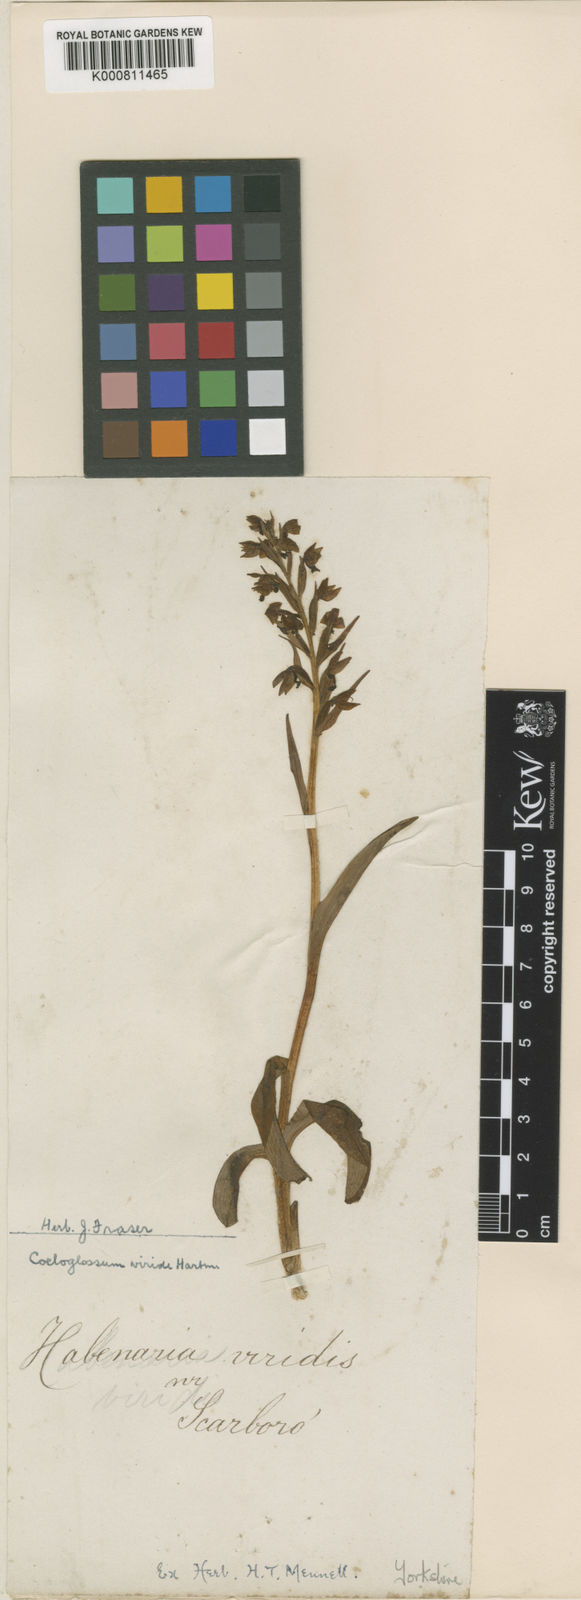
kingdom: Plantae
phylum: Tracheophyta
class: Liliopsida
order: Asparagales
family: Orchidaceae
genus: Dactylorhiza
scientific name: Dactylorhiza viridis
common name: Longbract frog orchid
